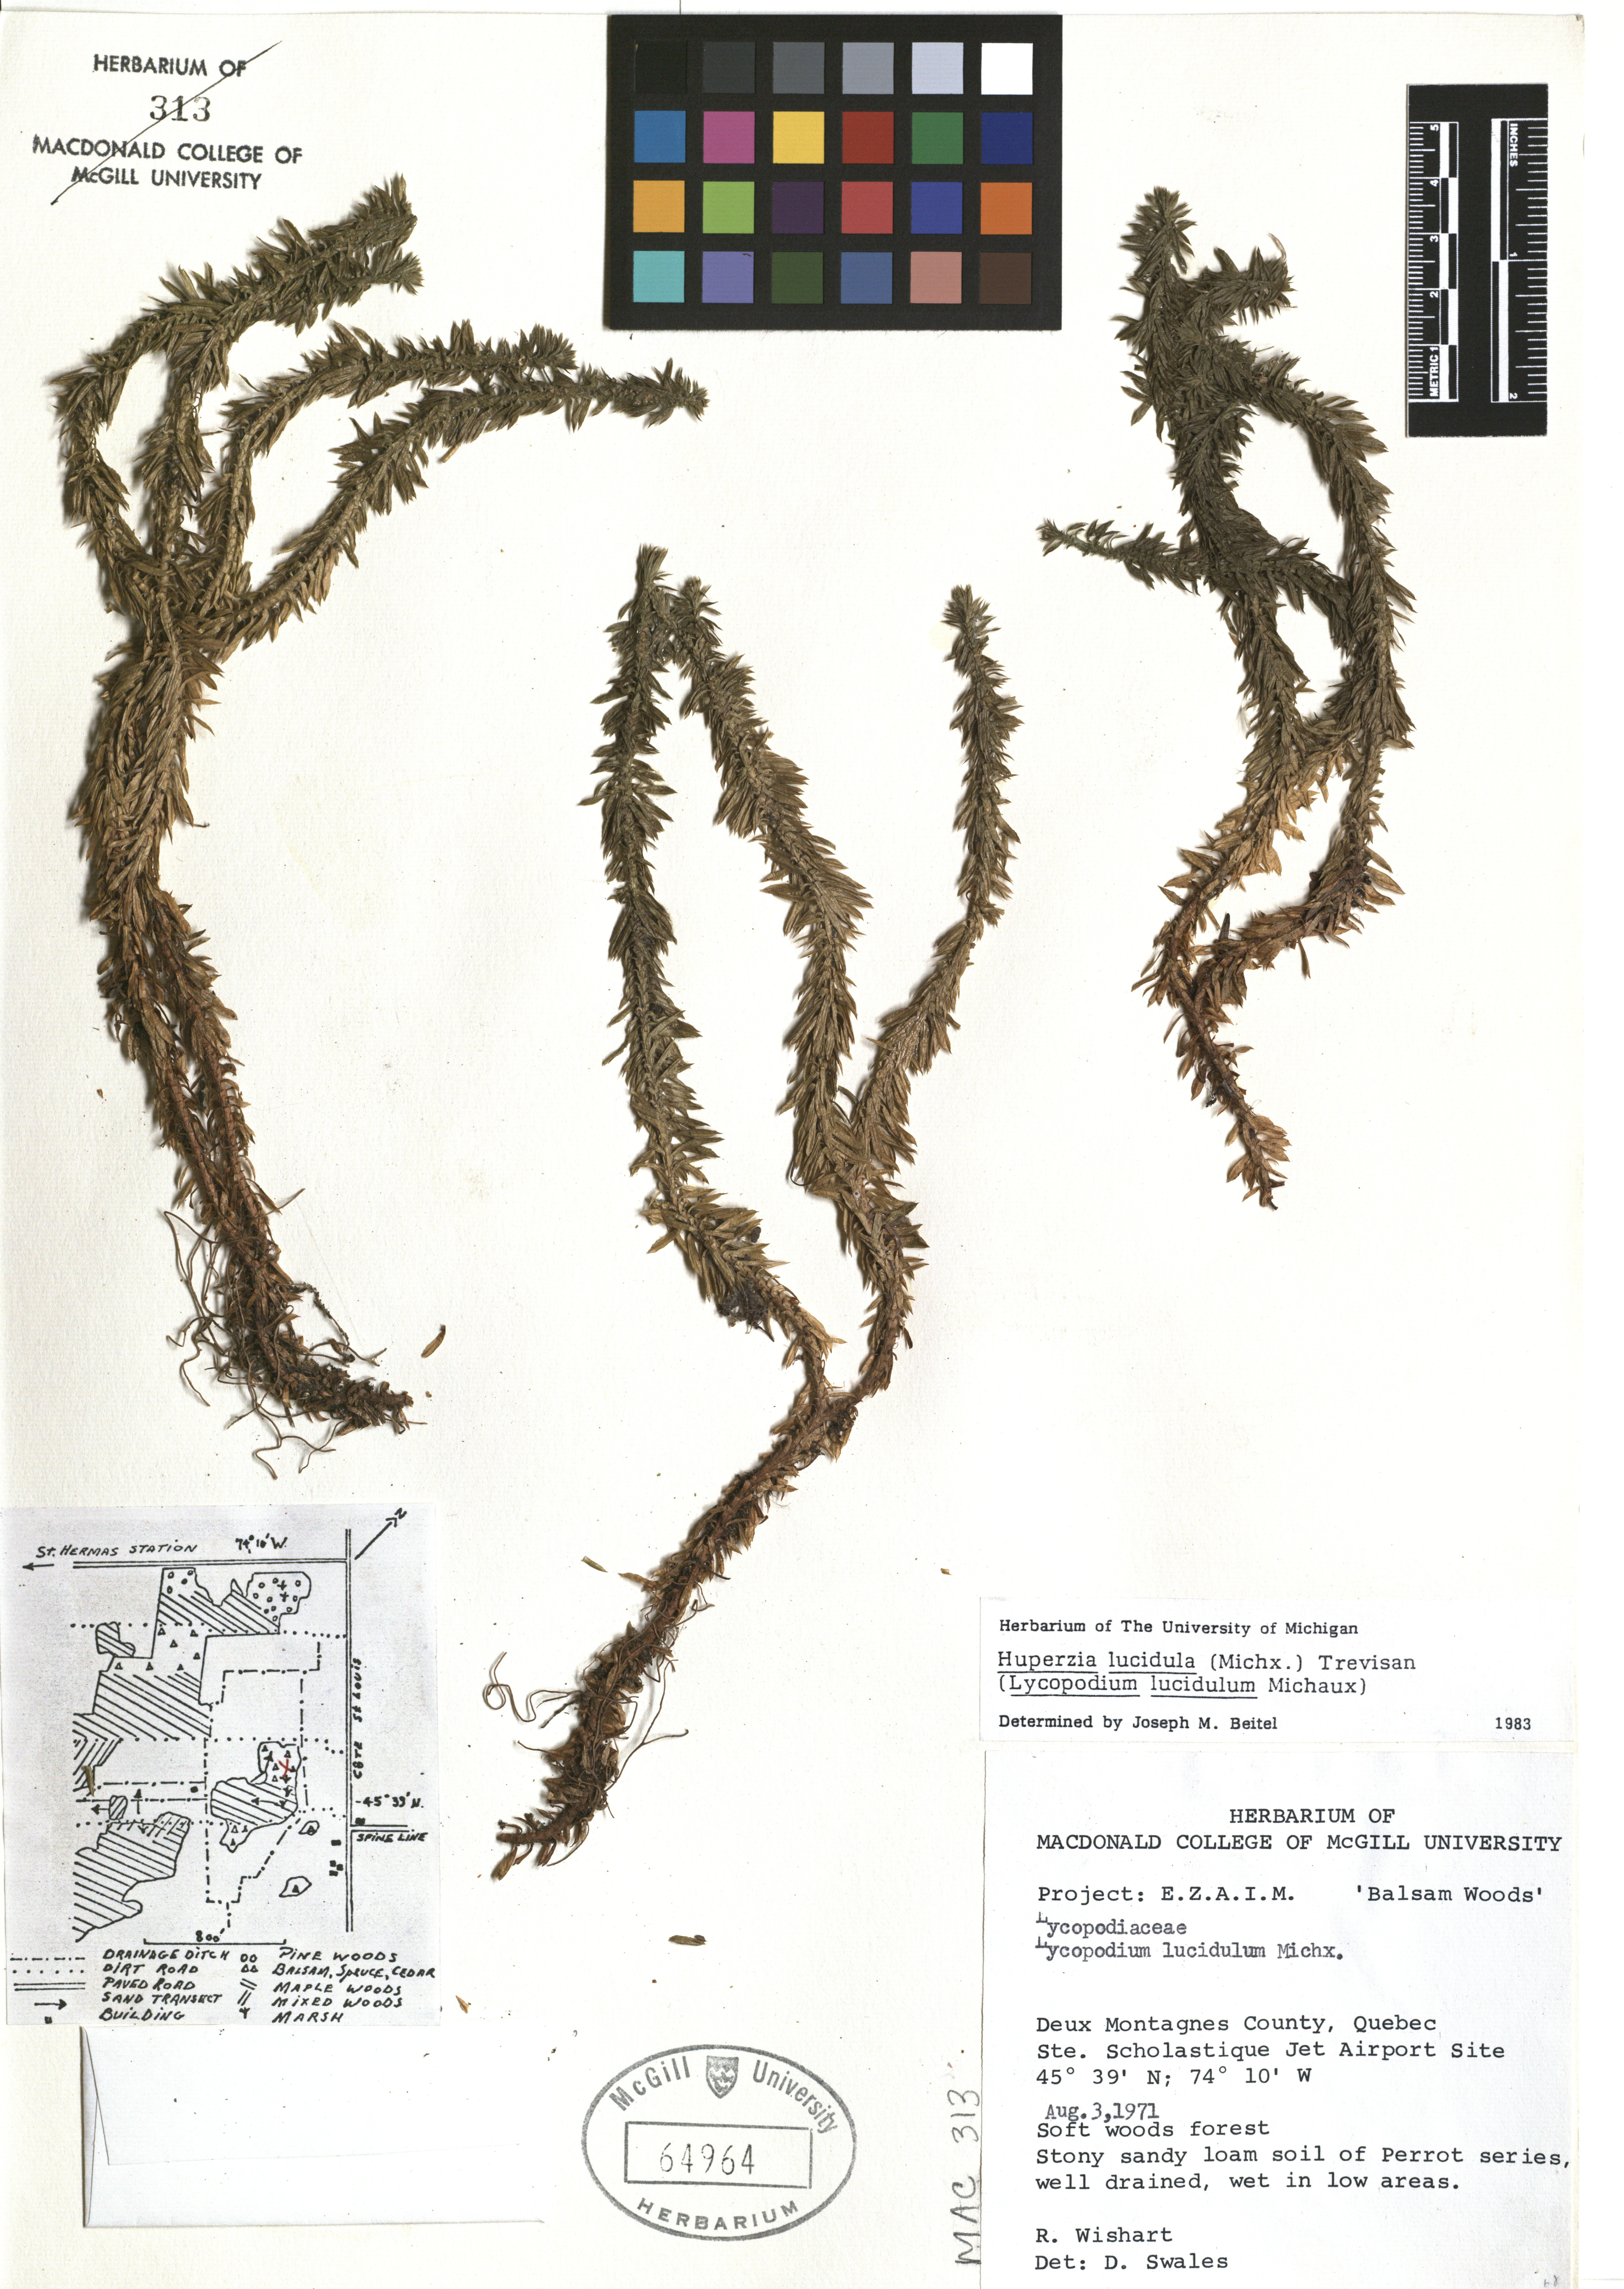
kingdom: Plantae
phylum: Tracheophyta
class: Lycopodiopsida
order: Lycopodiales
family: Lycopodiaceae
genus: Huperzia
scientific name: Huperzia lucidula
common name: Shining clubmoss
